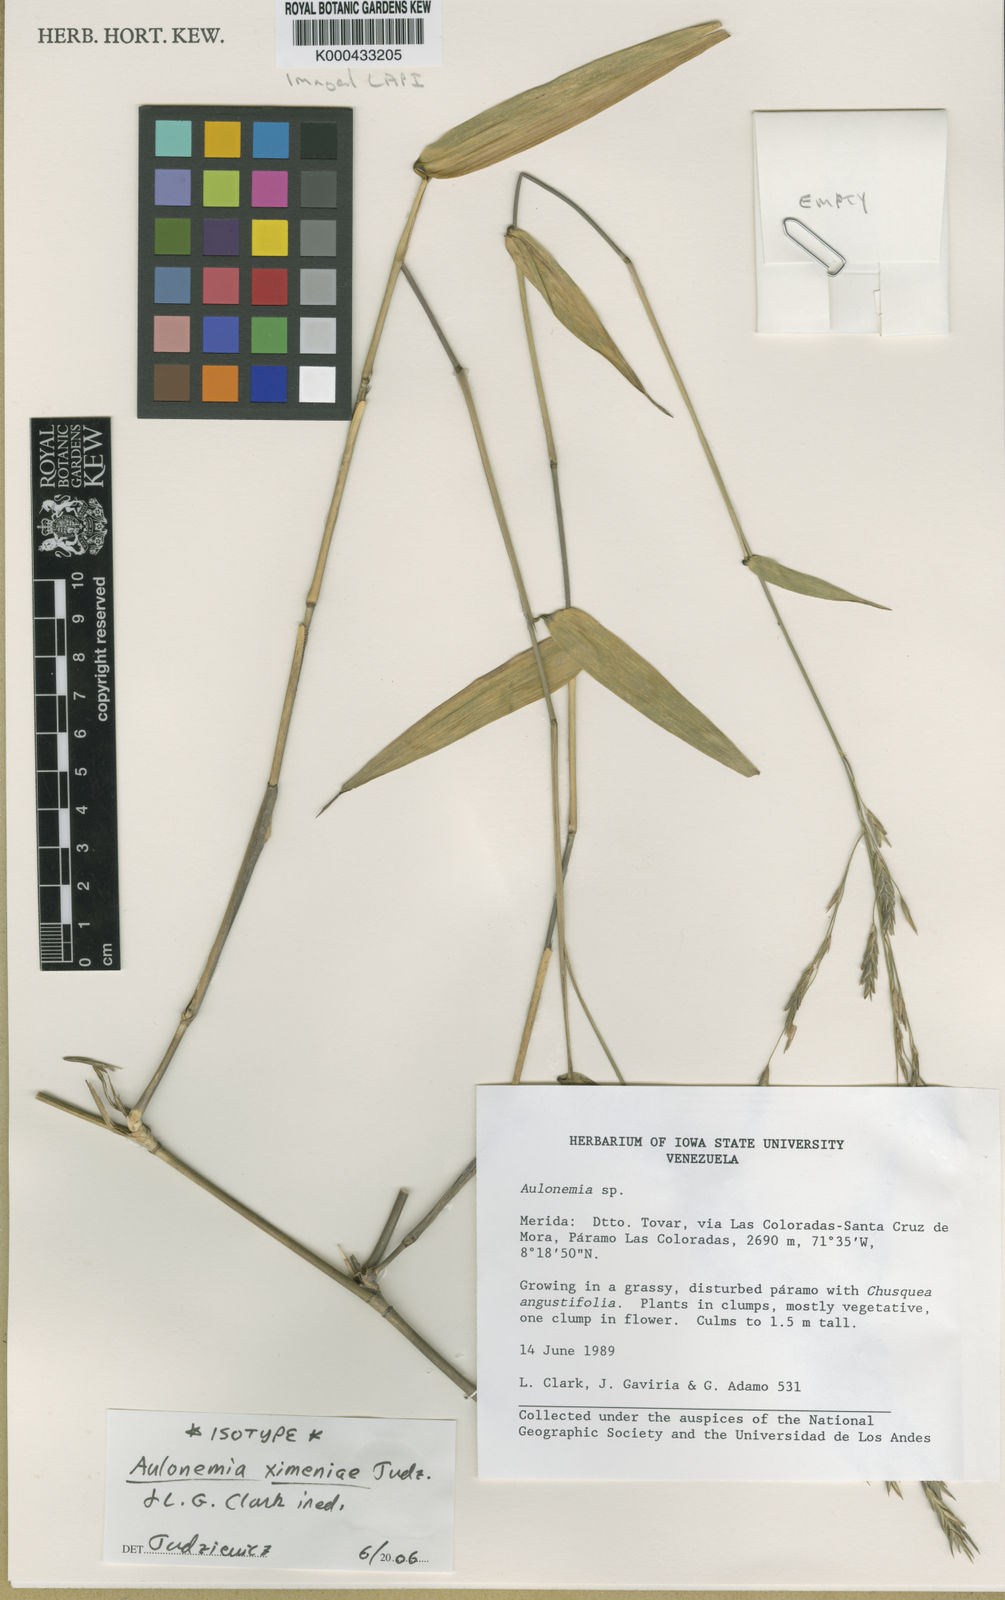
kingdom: Plantae
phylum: Tracheophyta
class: Liliopsida
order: Poales
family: Poaceae
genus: Aulonemia
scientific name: Aulonemia ximenae
